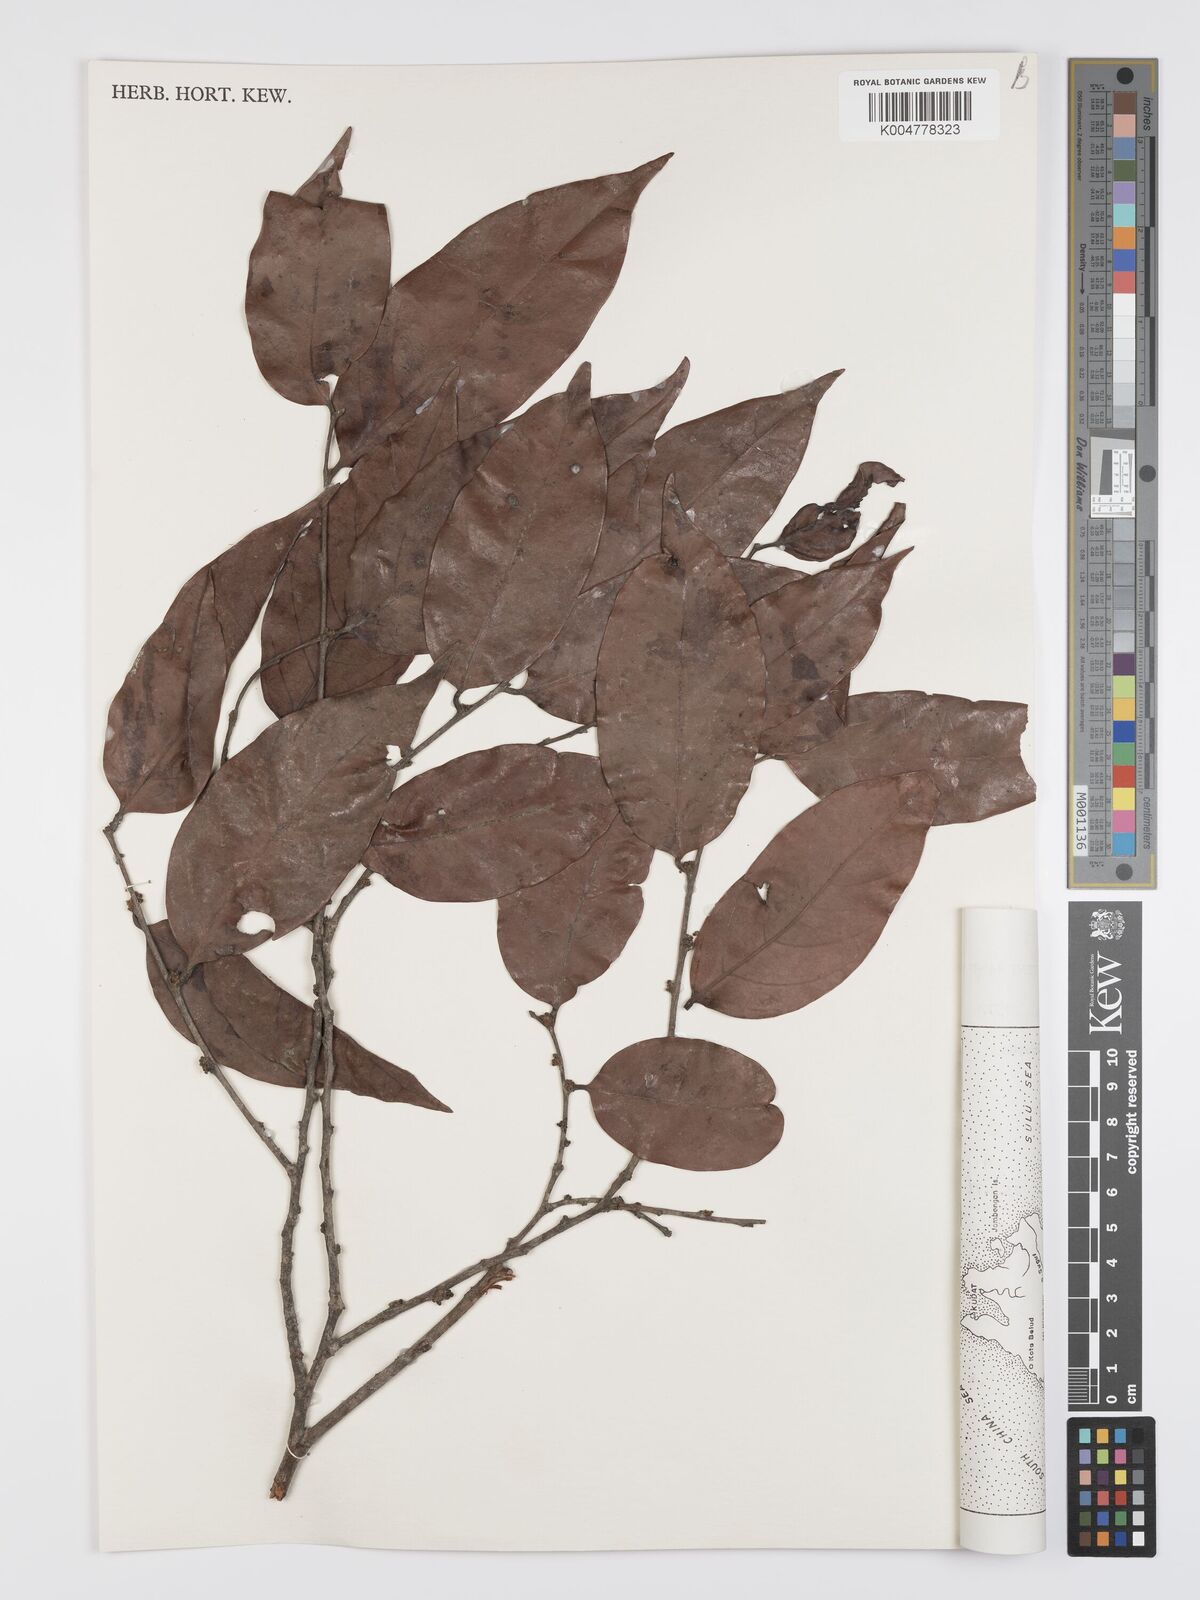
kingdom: Plantae
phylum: Tracheophyta
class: Magnoliopsida
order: Malpighiales
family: Peraceae
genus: Chaetocarpus
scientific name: Chaetocarpus castanocarpus
